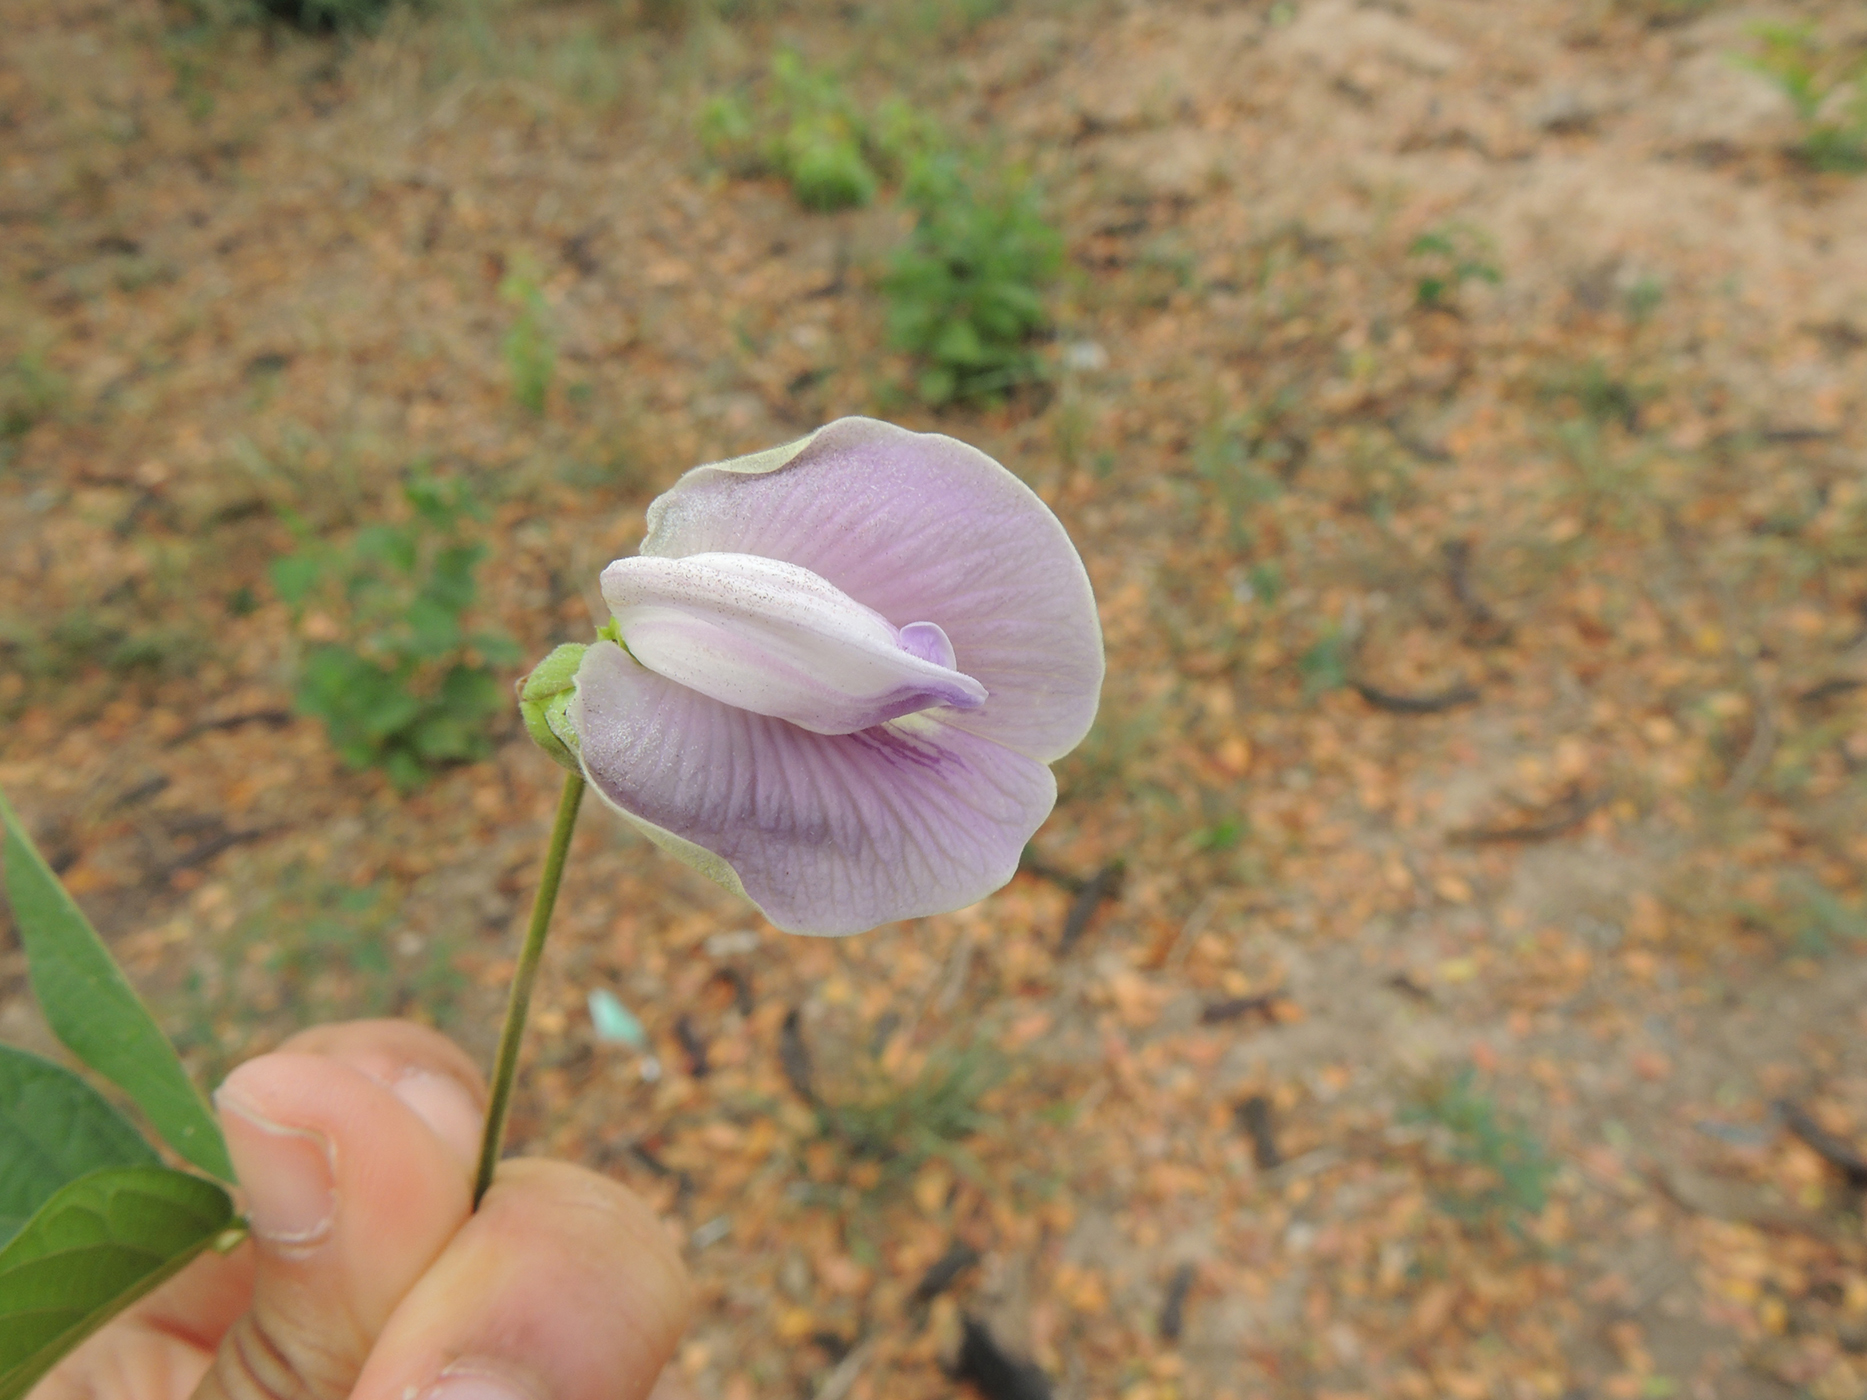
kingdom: Plantae
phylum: Tracheophyta
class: Magnoliopsida
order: Fabales
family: Fabaceae
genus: Centrosema
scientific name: Centrosema pubescens
